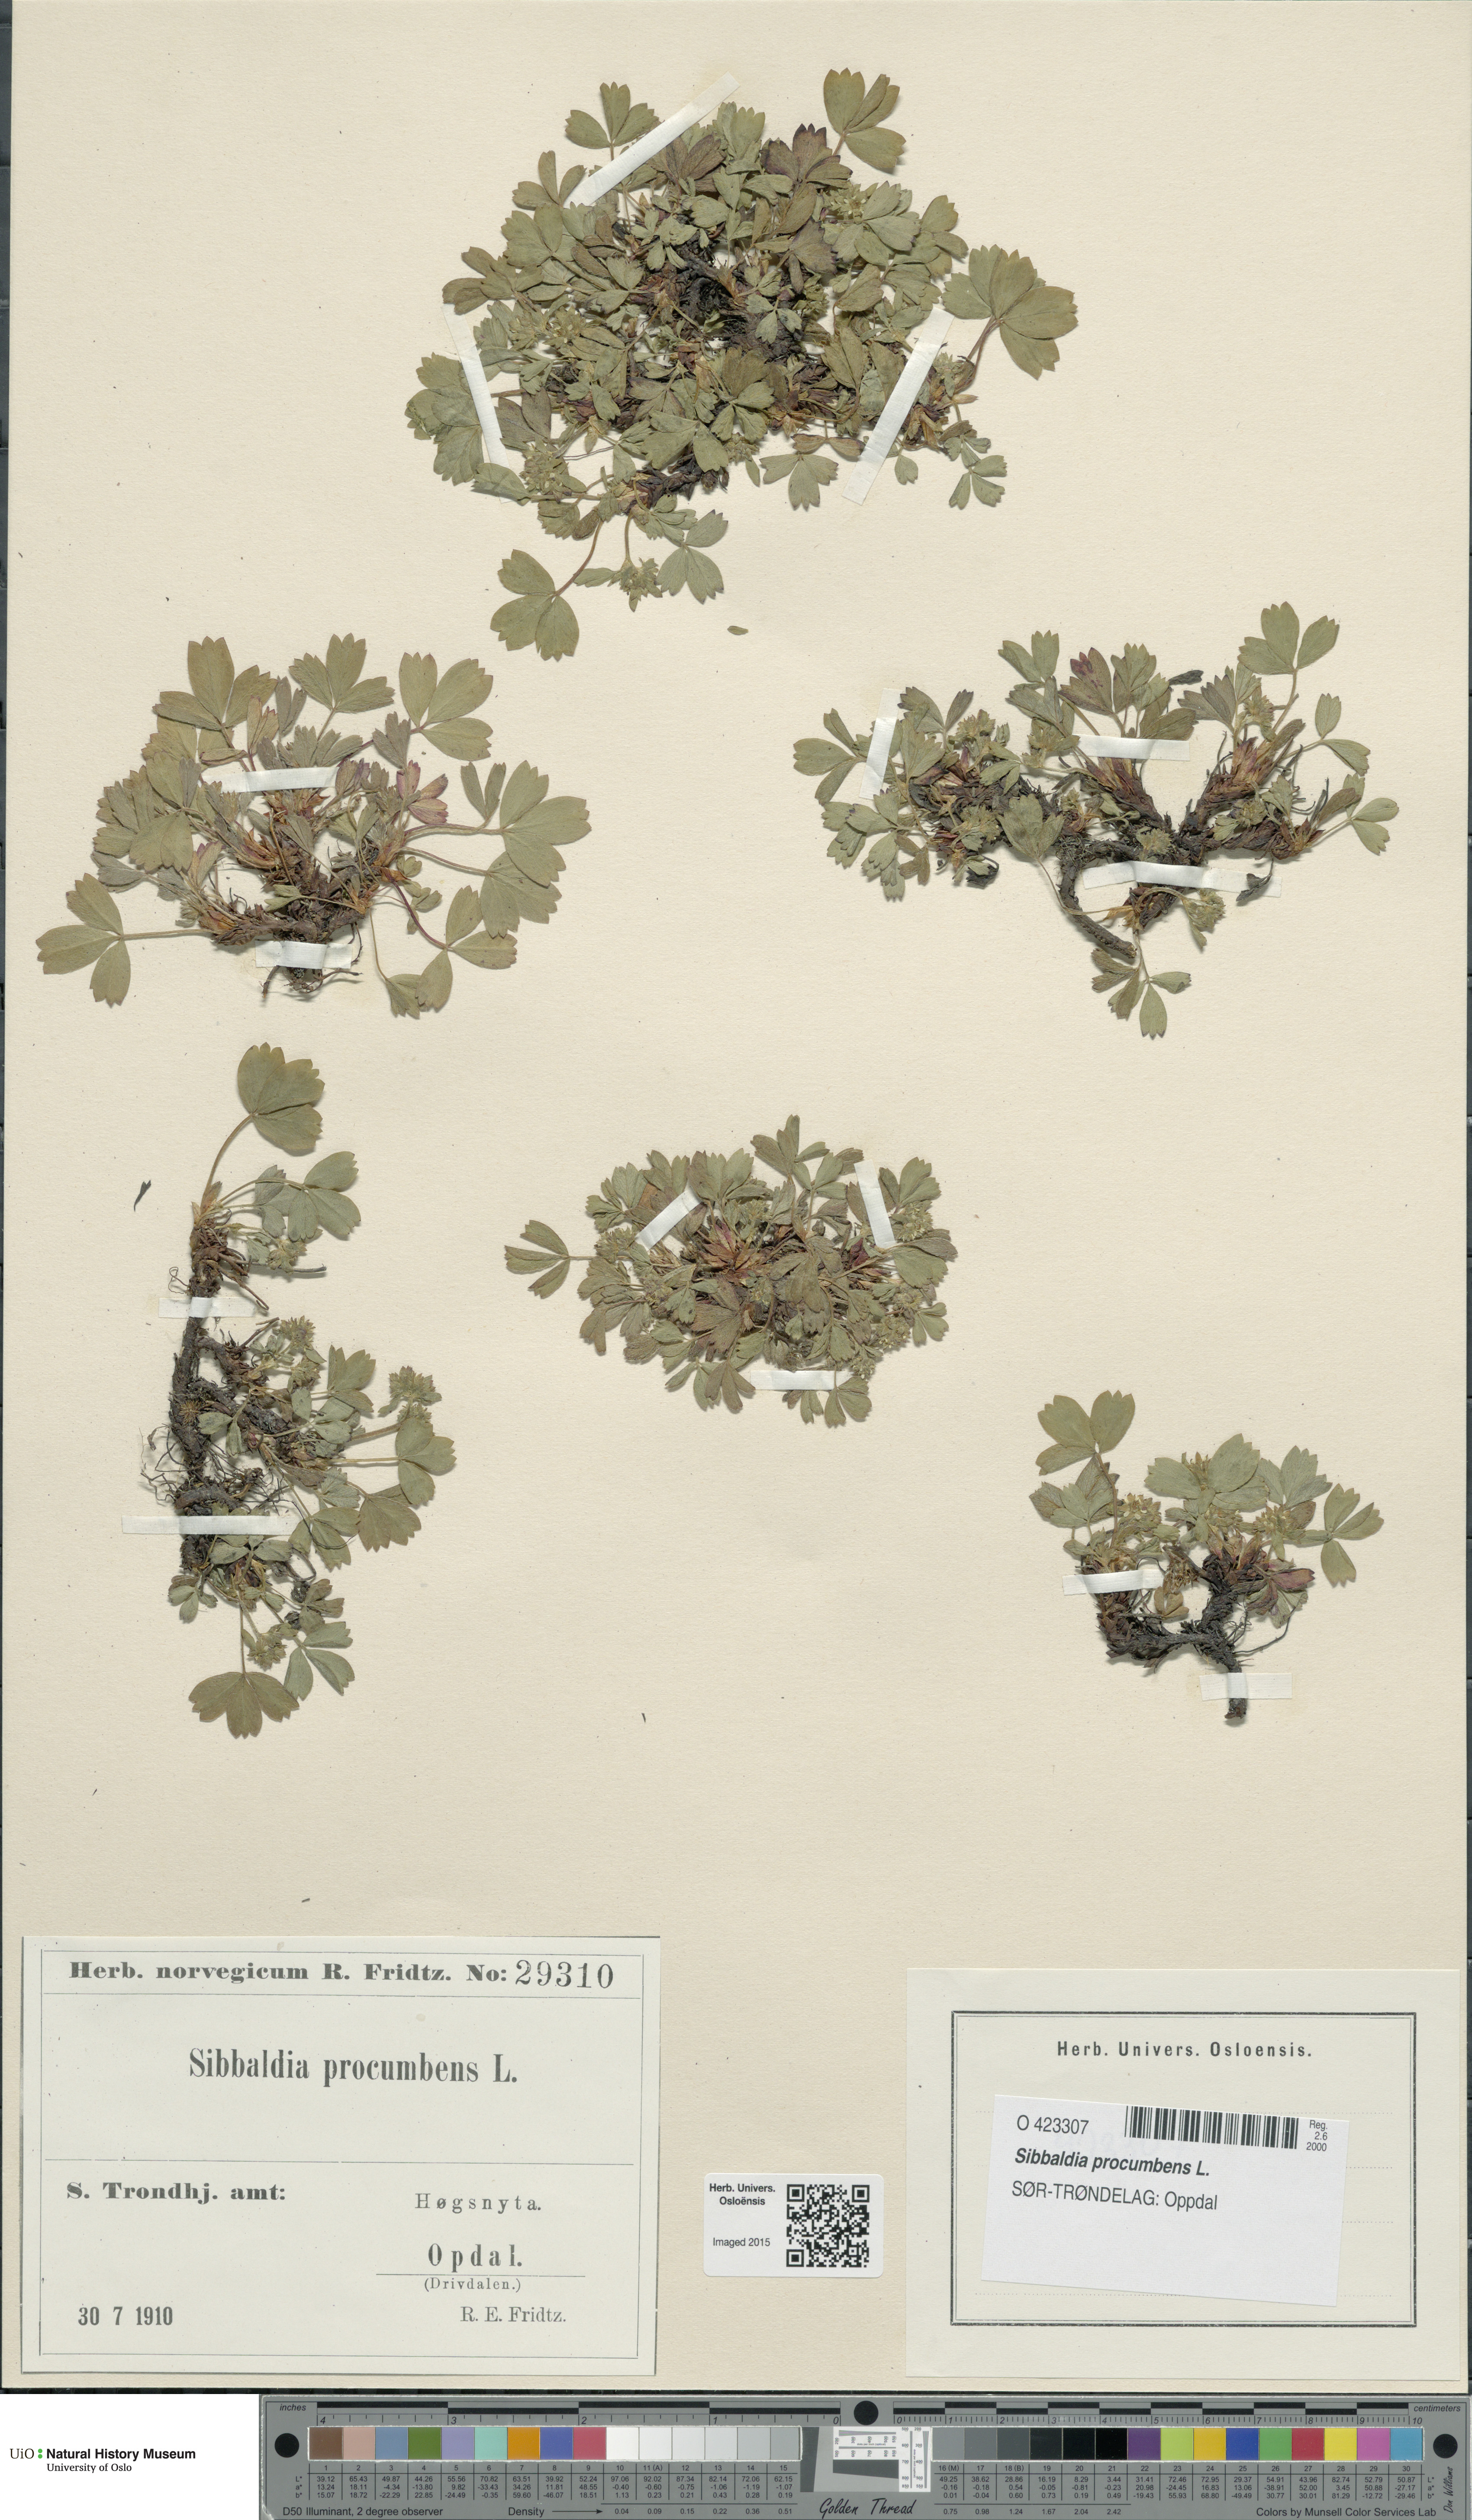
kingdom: Plantae
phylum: Tracheophyta
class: Magnoliopsida
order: Rosales
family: Rosaceae
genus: Sibbaldia
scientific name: Sibbaldia procumbens
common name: Creeping sibbaldia
